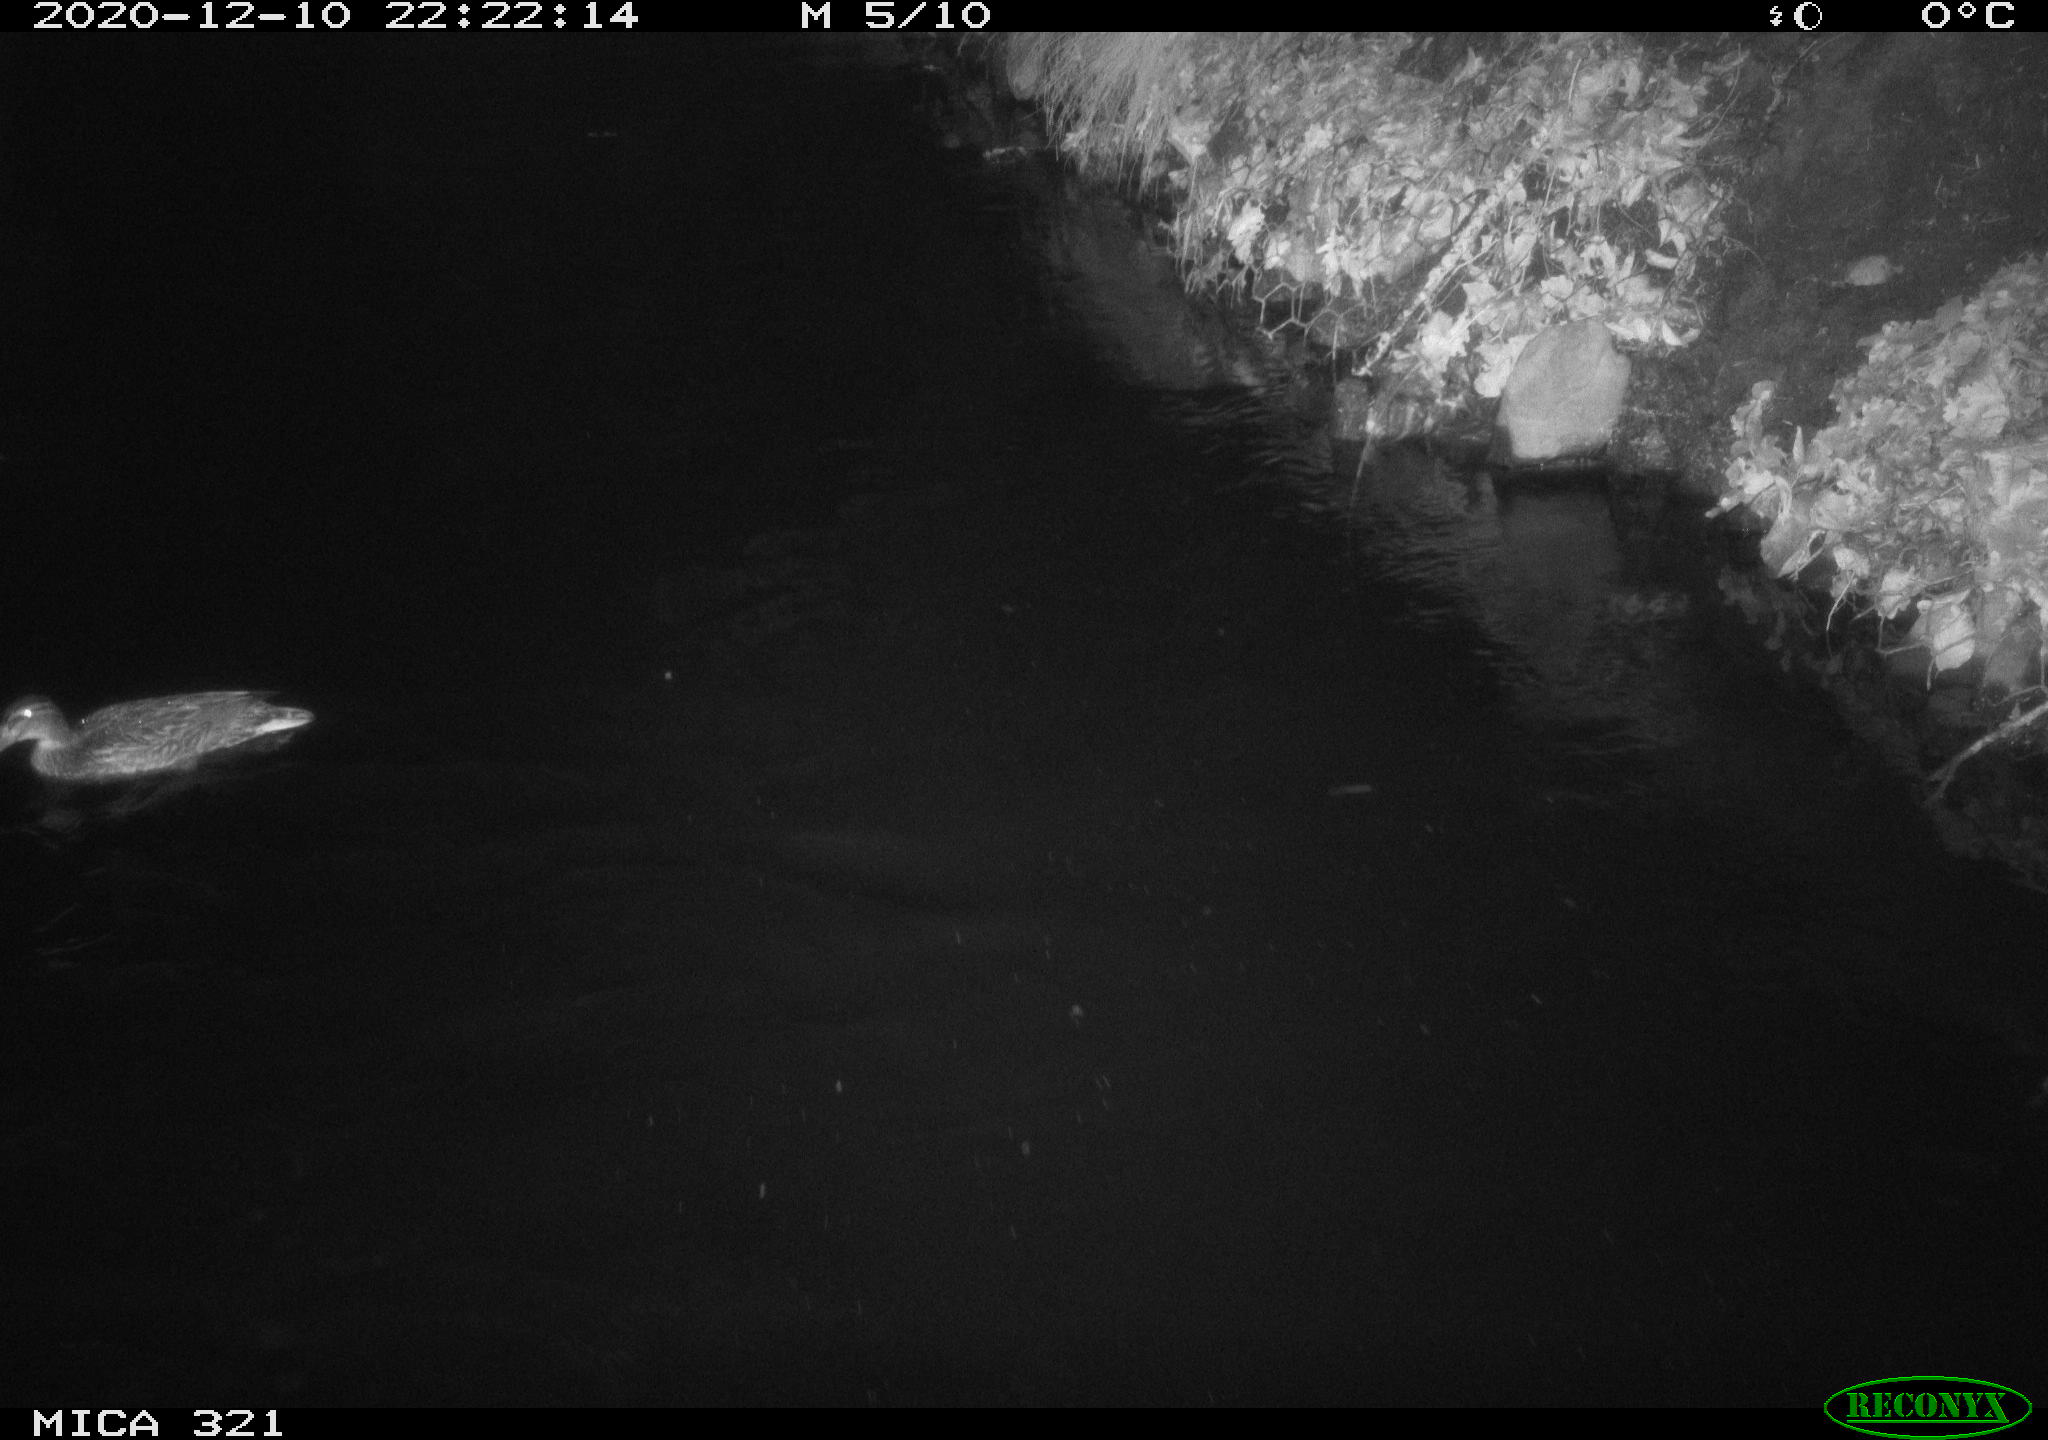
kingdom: Animalia
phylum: Chordata
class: Aves
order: Anseriformes
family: Anatidae
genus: Anas
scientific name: Anas platyrhynchos
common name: Mallard
